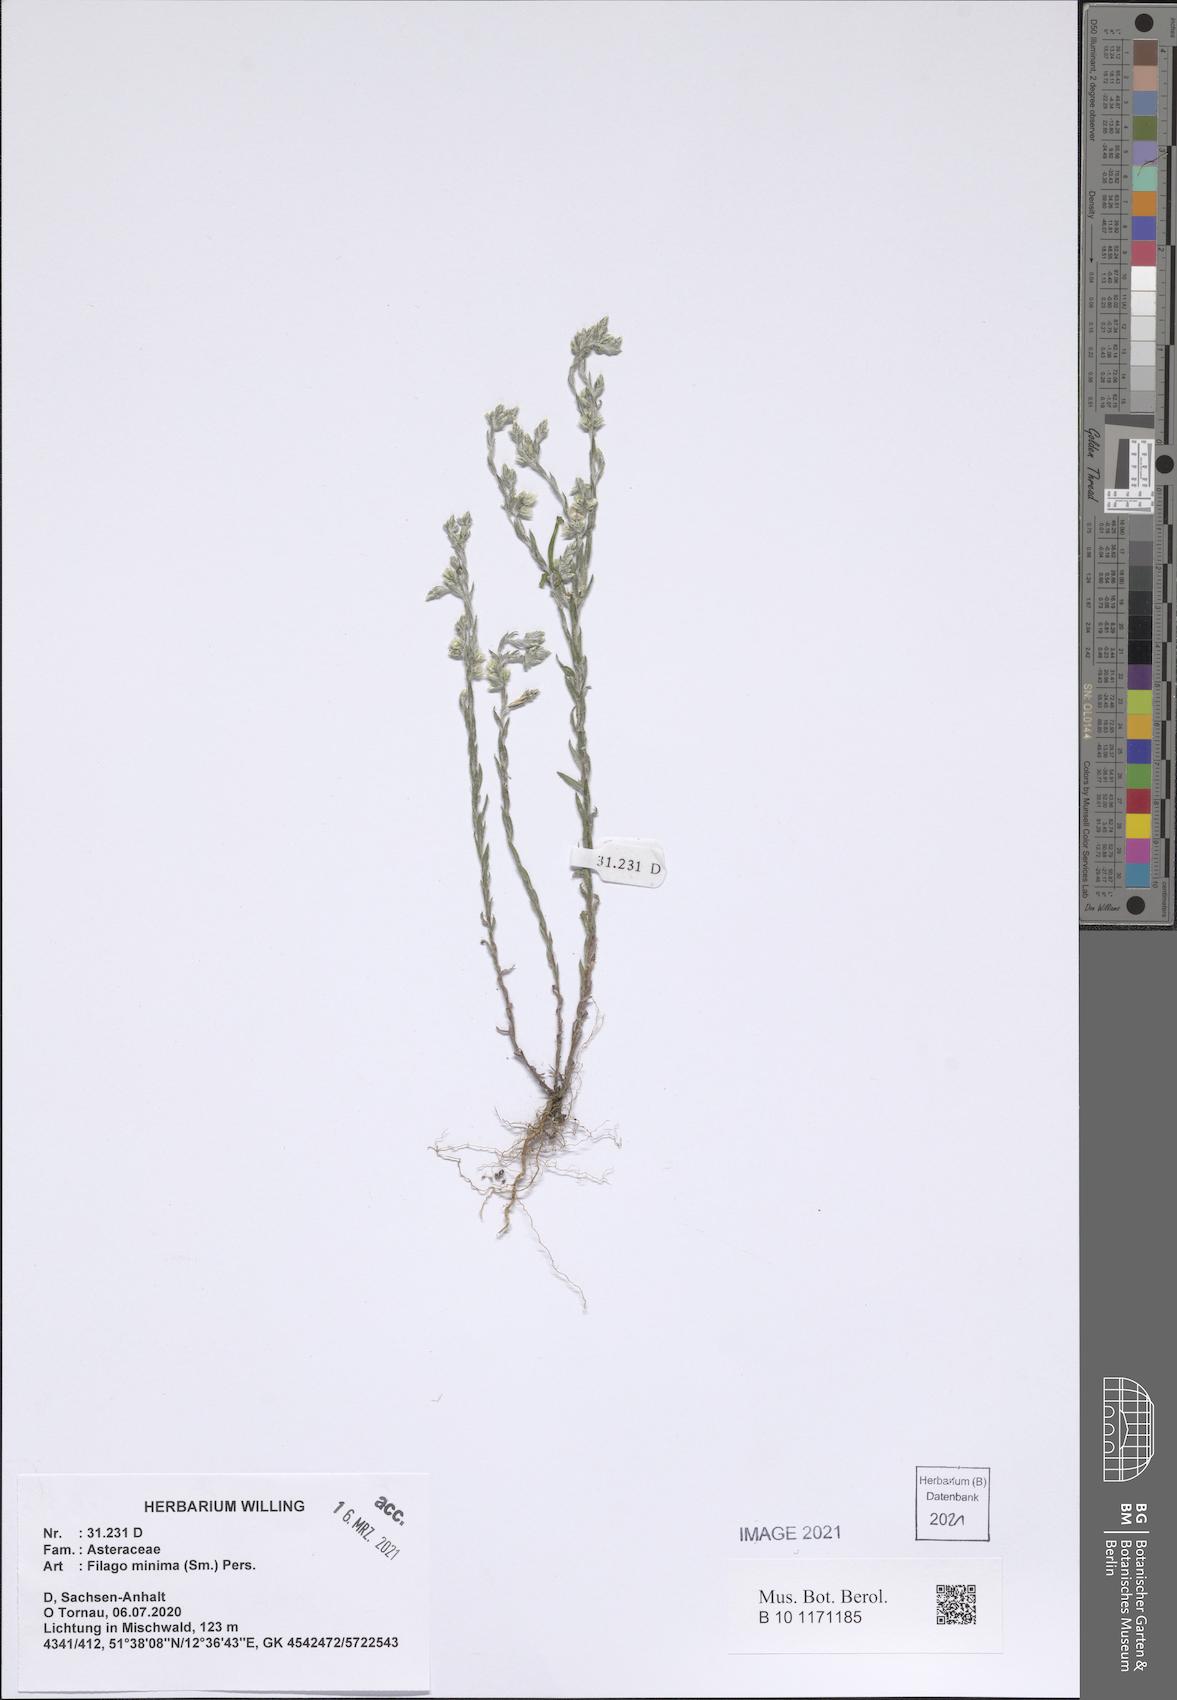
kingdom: Plantae
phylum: Tracheophyta
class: Magnoliopsida
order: Asterales
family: Asteraceae
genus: Logfia
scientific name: Logfia minima
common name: Little cottonrose
